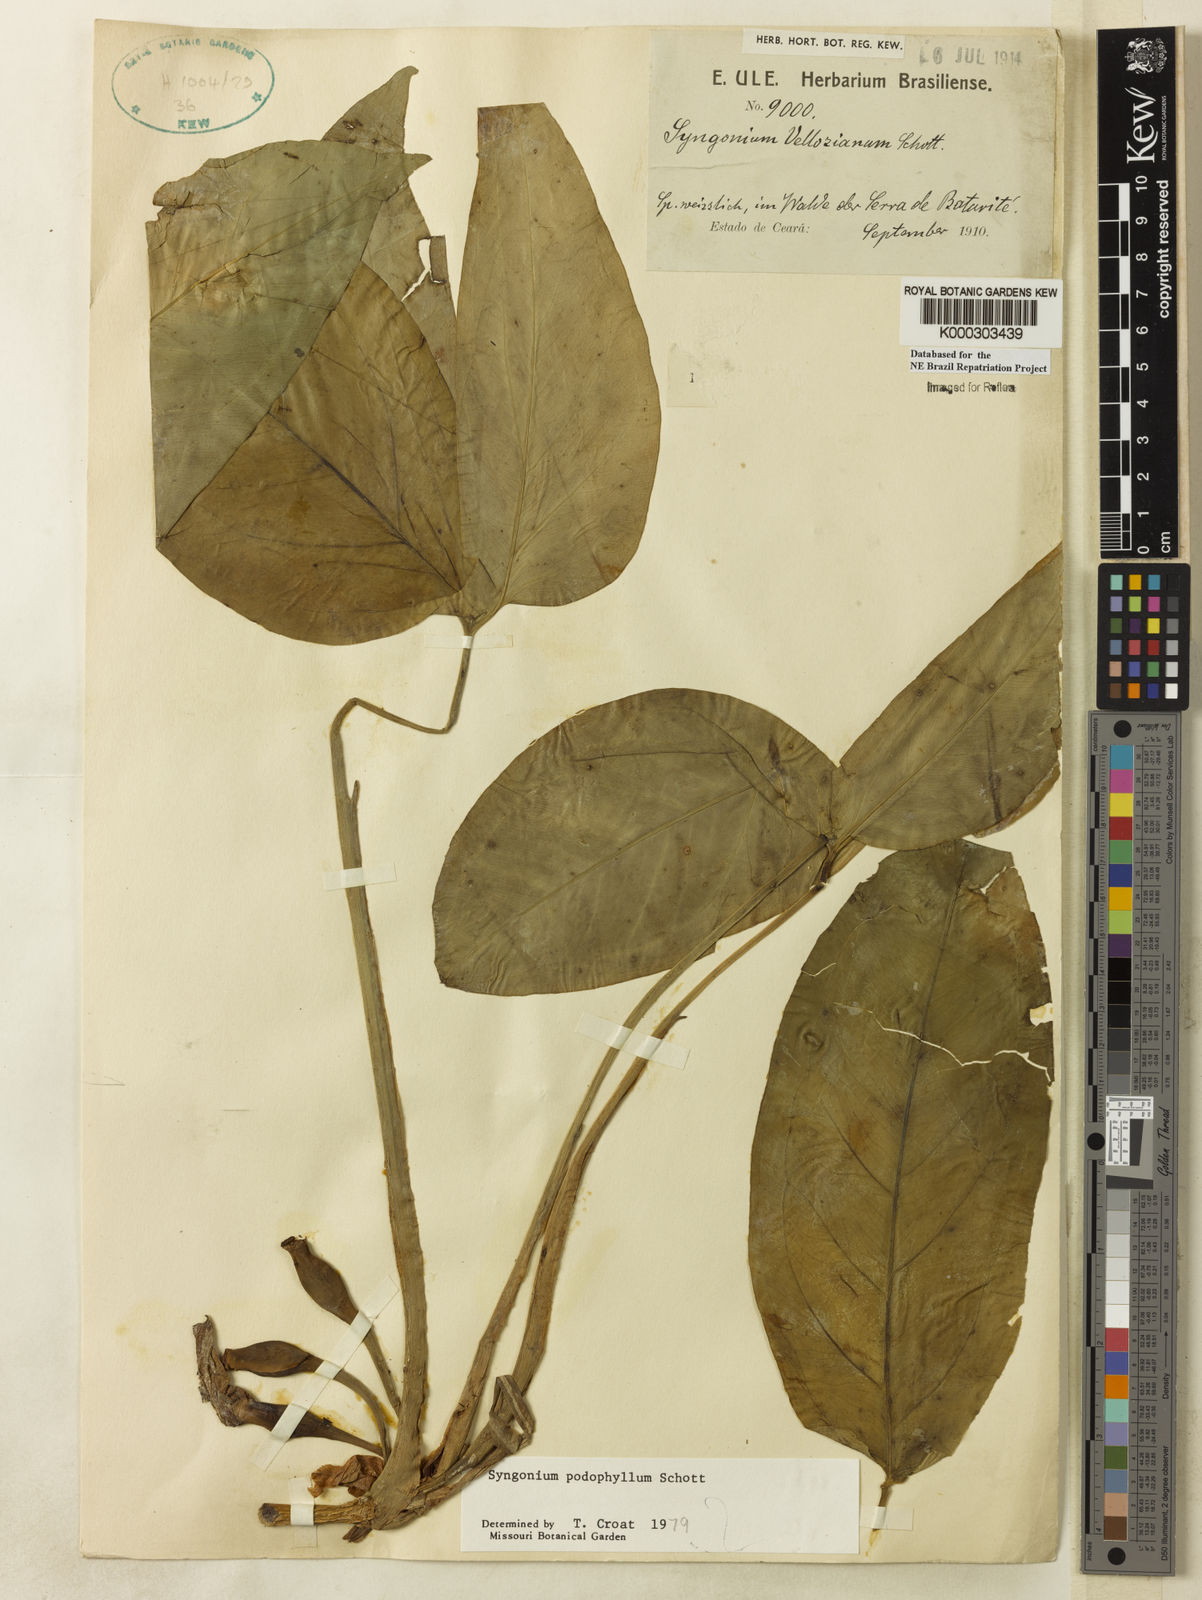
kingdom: Plantae
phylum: Tracheophyta
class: Liliopsida
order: Alismatales
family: Araceae
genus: Syngonium
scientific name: Syngonium podophyllum
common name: American evergreen
